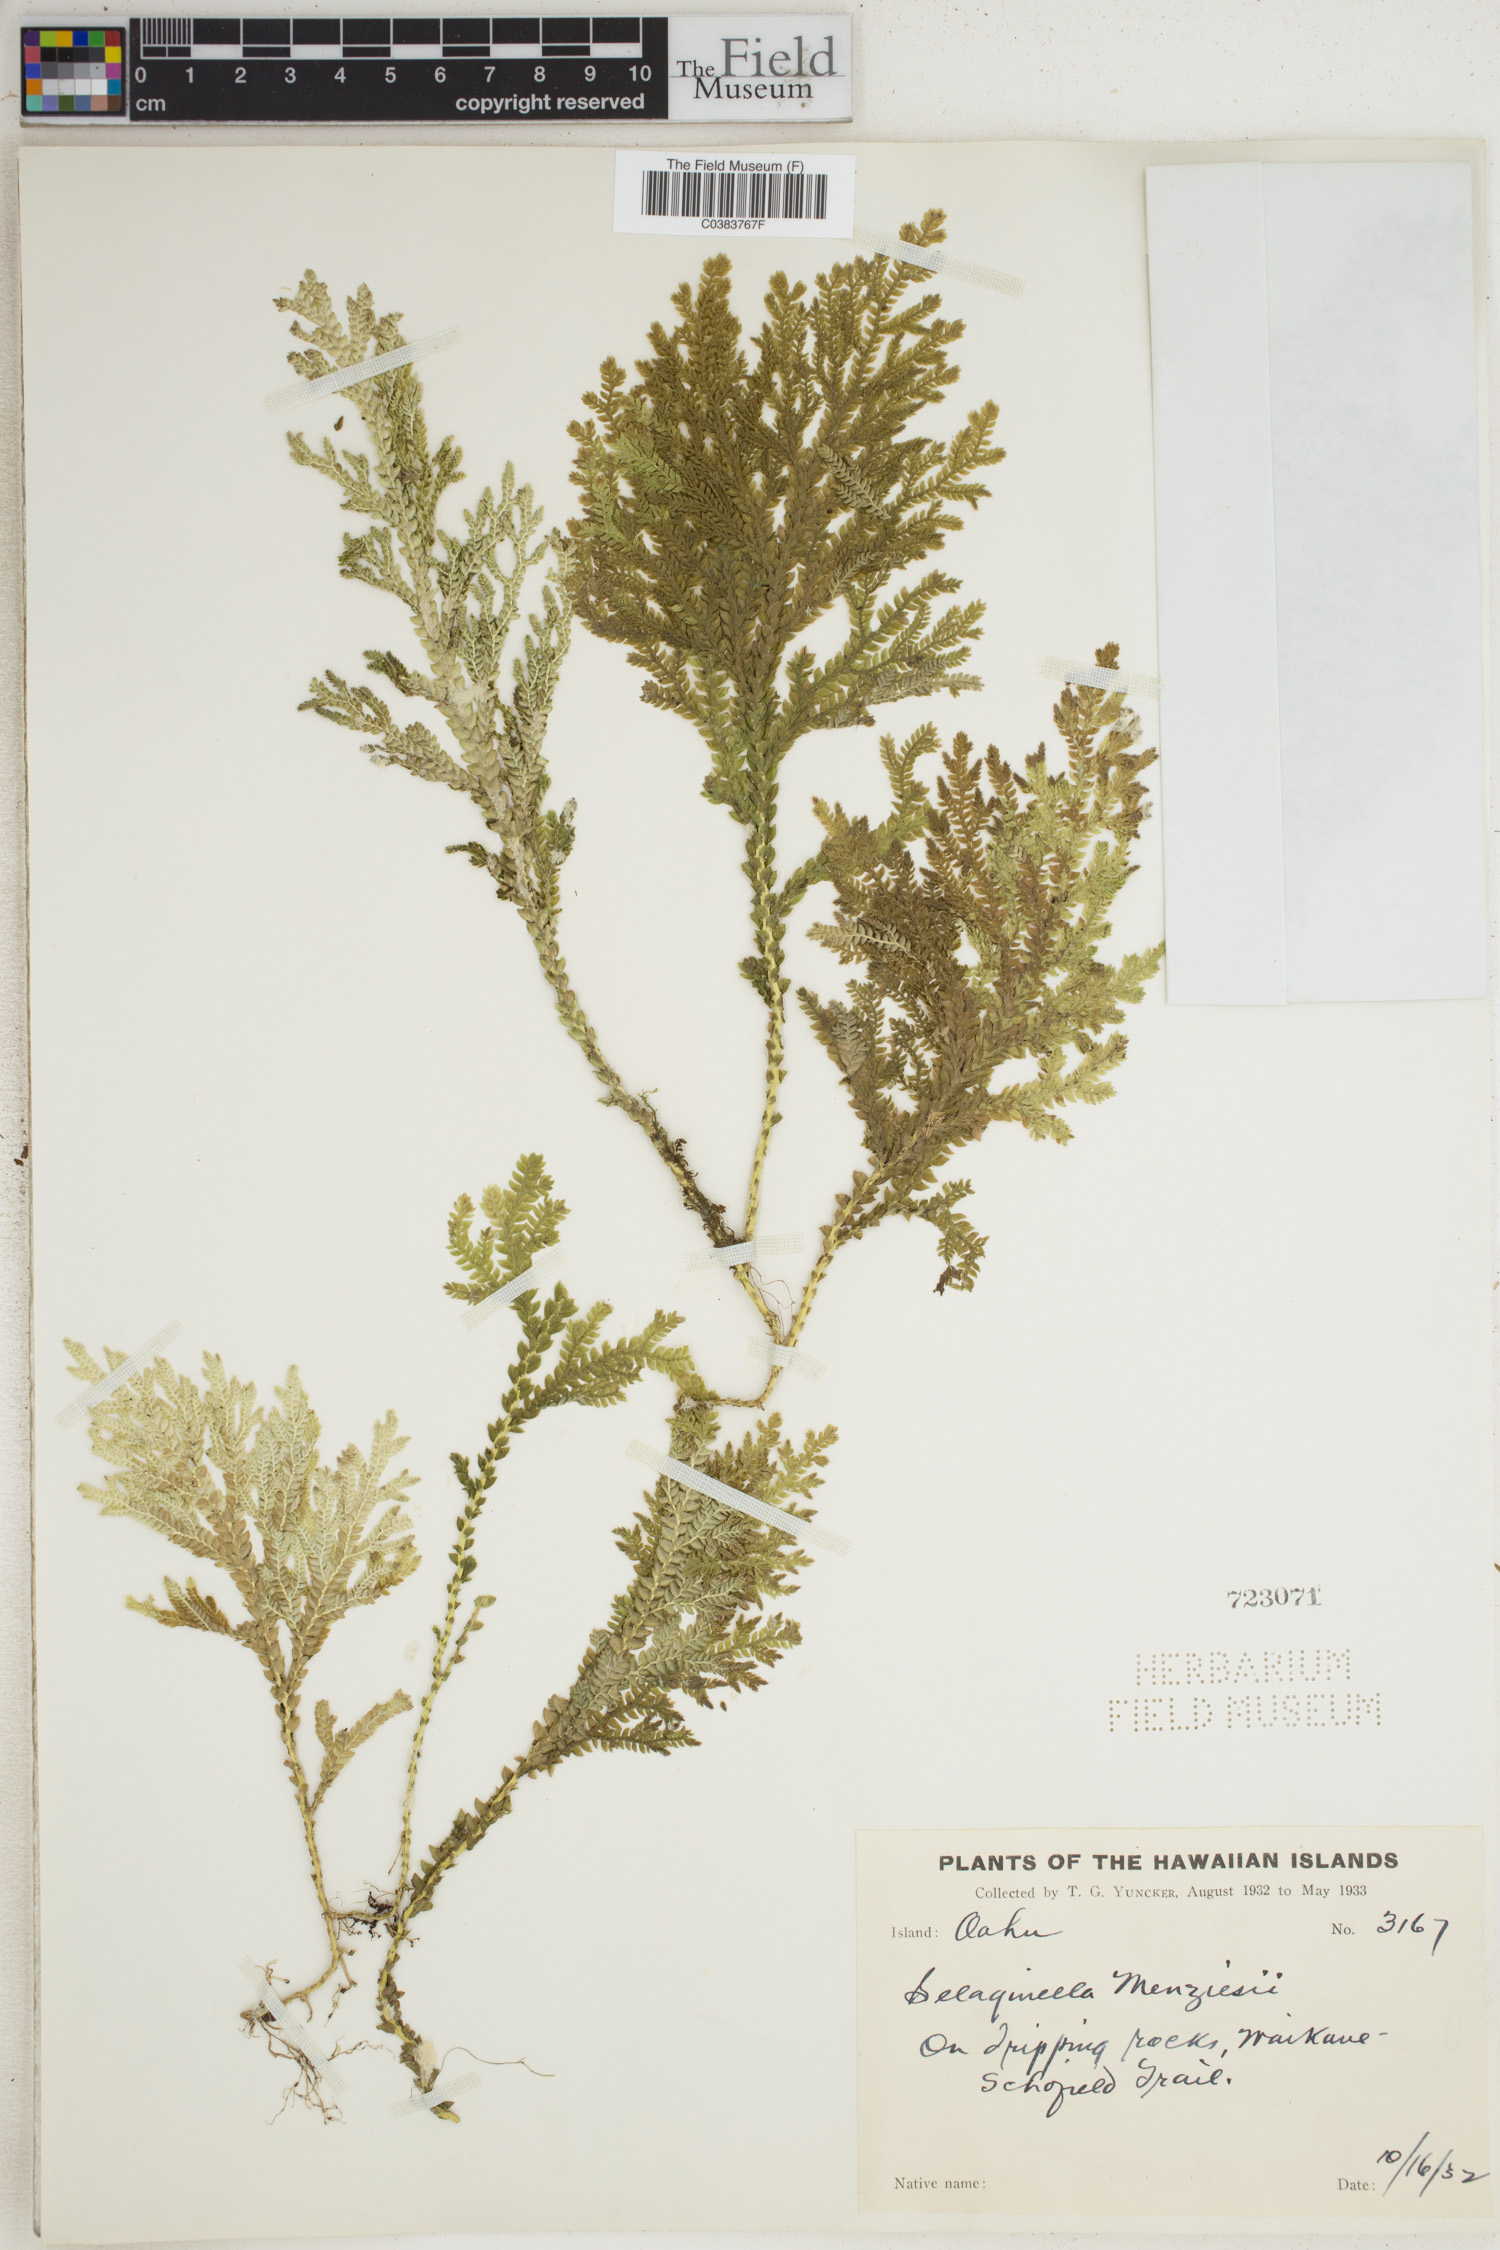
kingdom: Plantae
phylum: Tracheophyta
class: Lycopodiopsida
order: Selaginellales
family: Selaginellaceae
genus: Selaginella
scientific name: Selaginella menziesii
